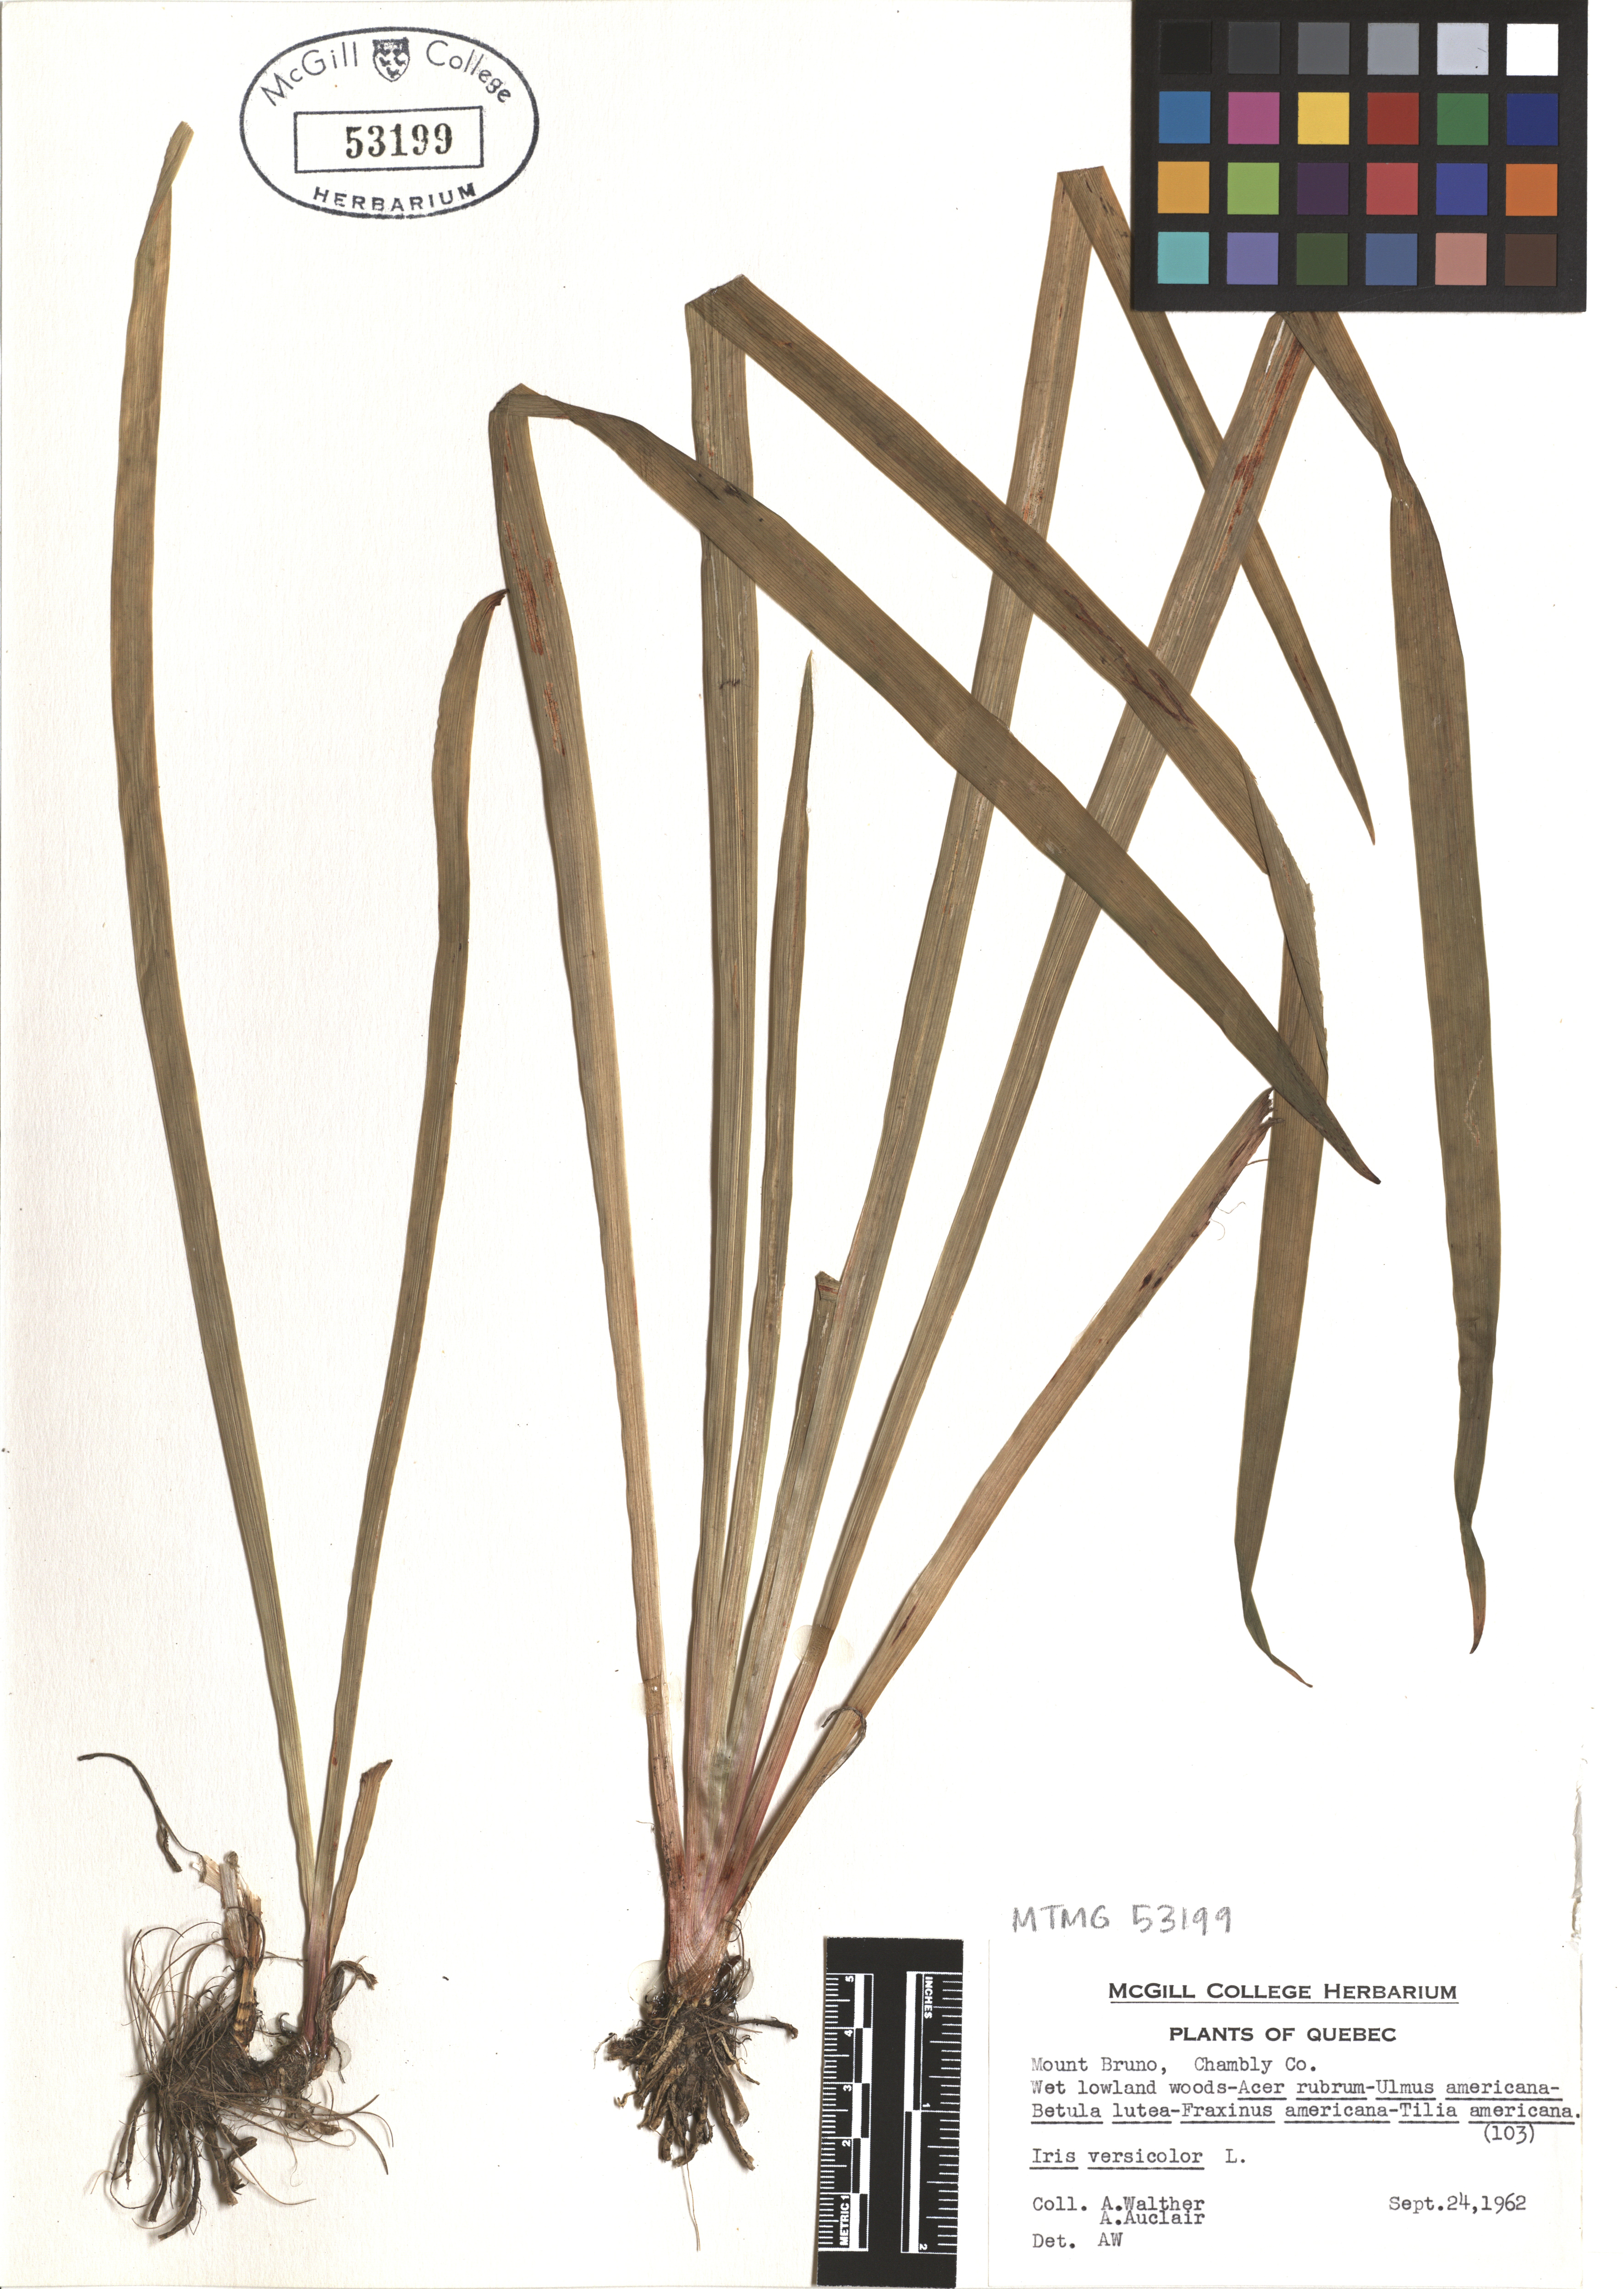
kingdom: Plantae
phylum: Tracheophyta
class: Liliopsida
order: Asparagales
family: Iridaceae
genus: Iris
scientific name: Iris versicolor
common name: Purple iris
